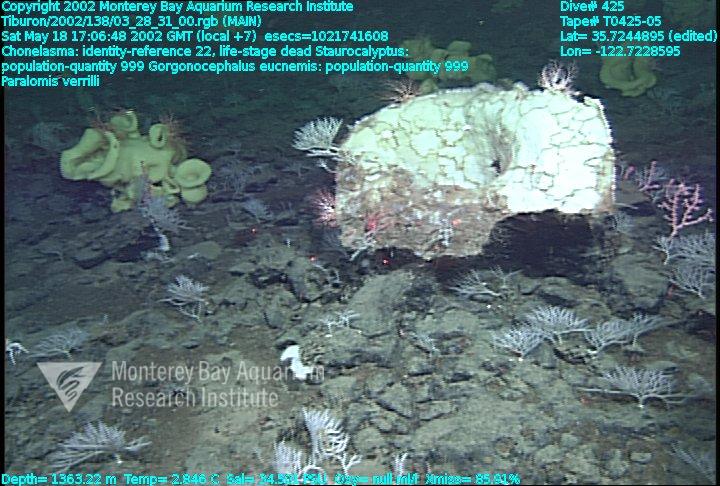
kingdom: Animalia
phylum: Porifera
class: Hexactinellida
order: Lyssacinosida
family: Rossellidae
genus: Staurocalyptus
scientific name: Staurocalyptus
